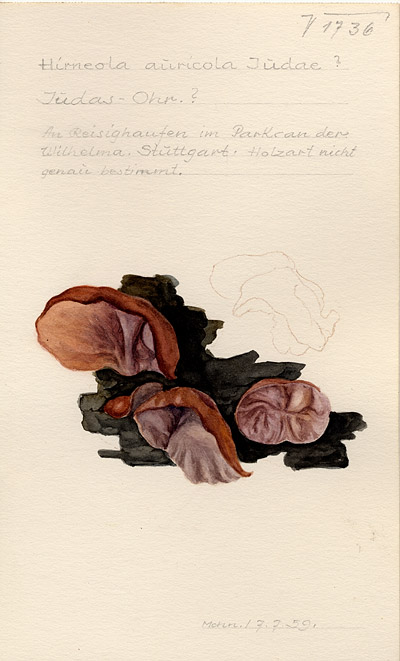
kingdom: Fungi
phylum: Basidiomycota
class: Agaricomycetes
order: Auriculariales
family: Auriculariaceae
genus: Auricularia
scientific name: Auricularia auricula-judae
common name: Jelly ear
